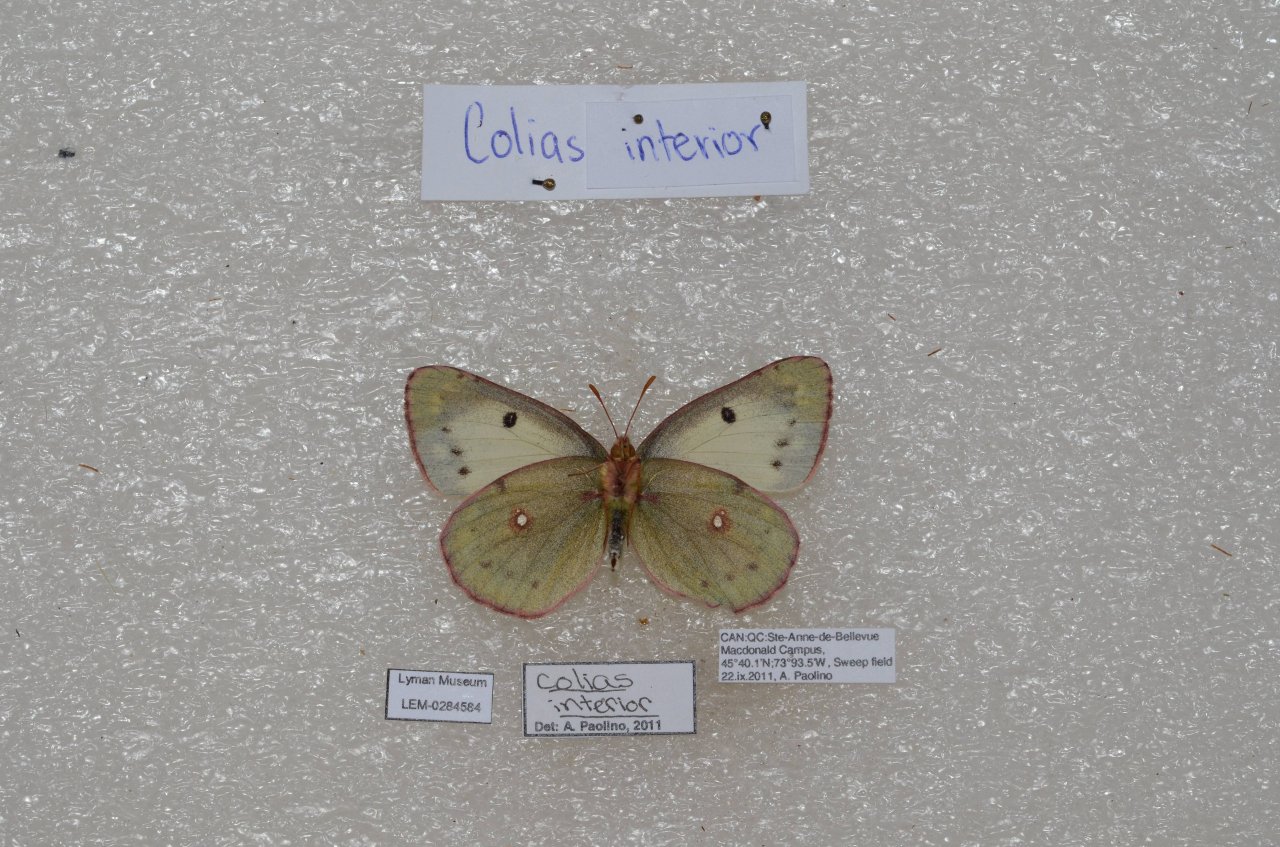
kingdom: Animalia
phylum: Arthropoda
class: Insecta
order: Lepidoptera
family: Pieridae
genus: Colias
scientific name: Colias philodice
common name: Clouded Sulphur
